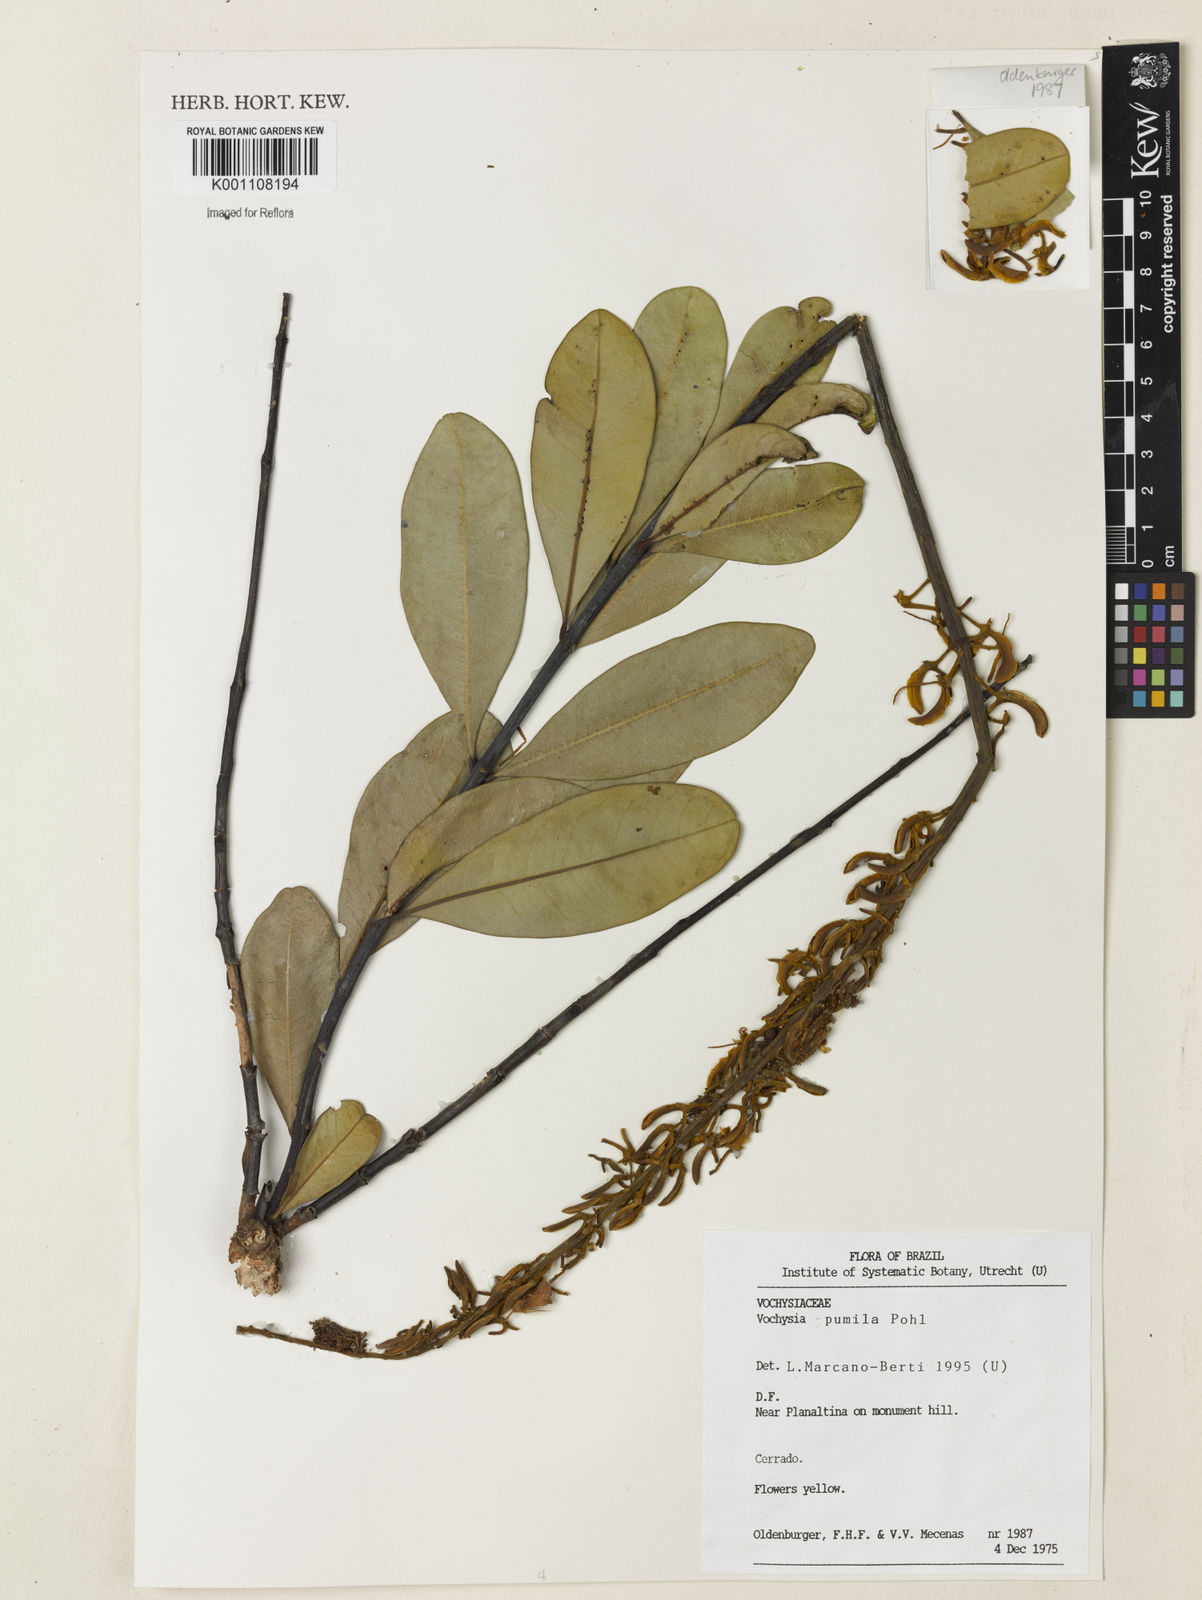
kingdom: Plantae
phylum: Tracheophyta
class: Magnoliopsida
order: Myrtales
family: Vochysiaceae
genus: Vochysia
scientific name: Vochysia pumila
